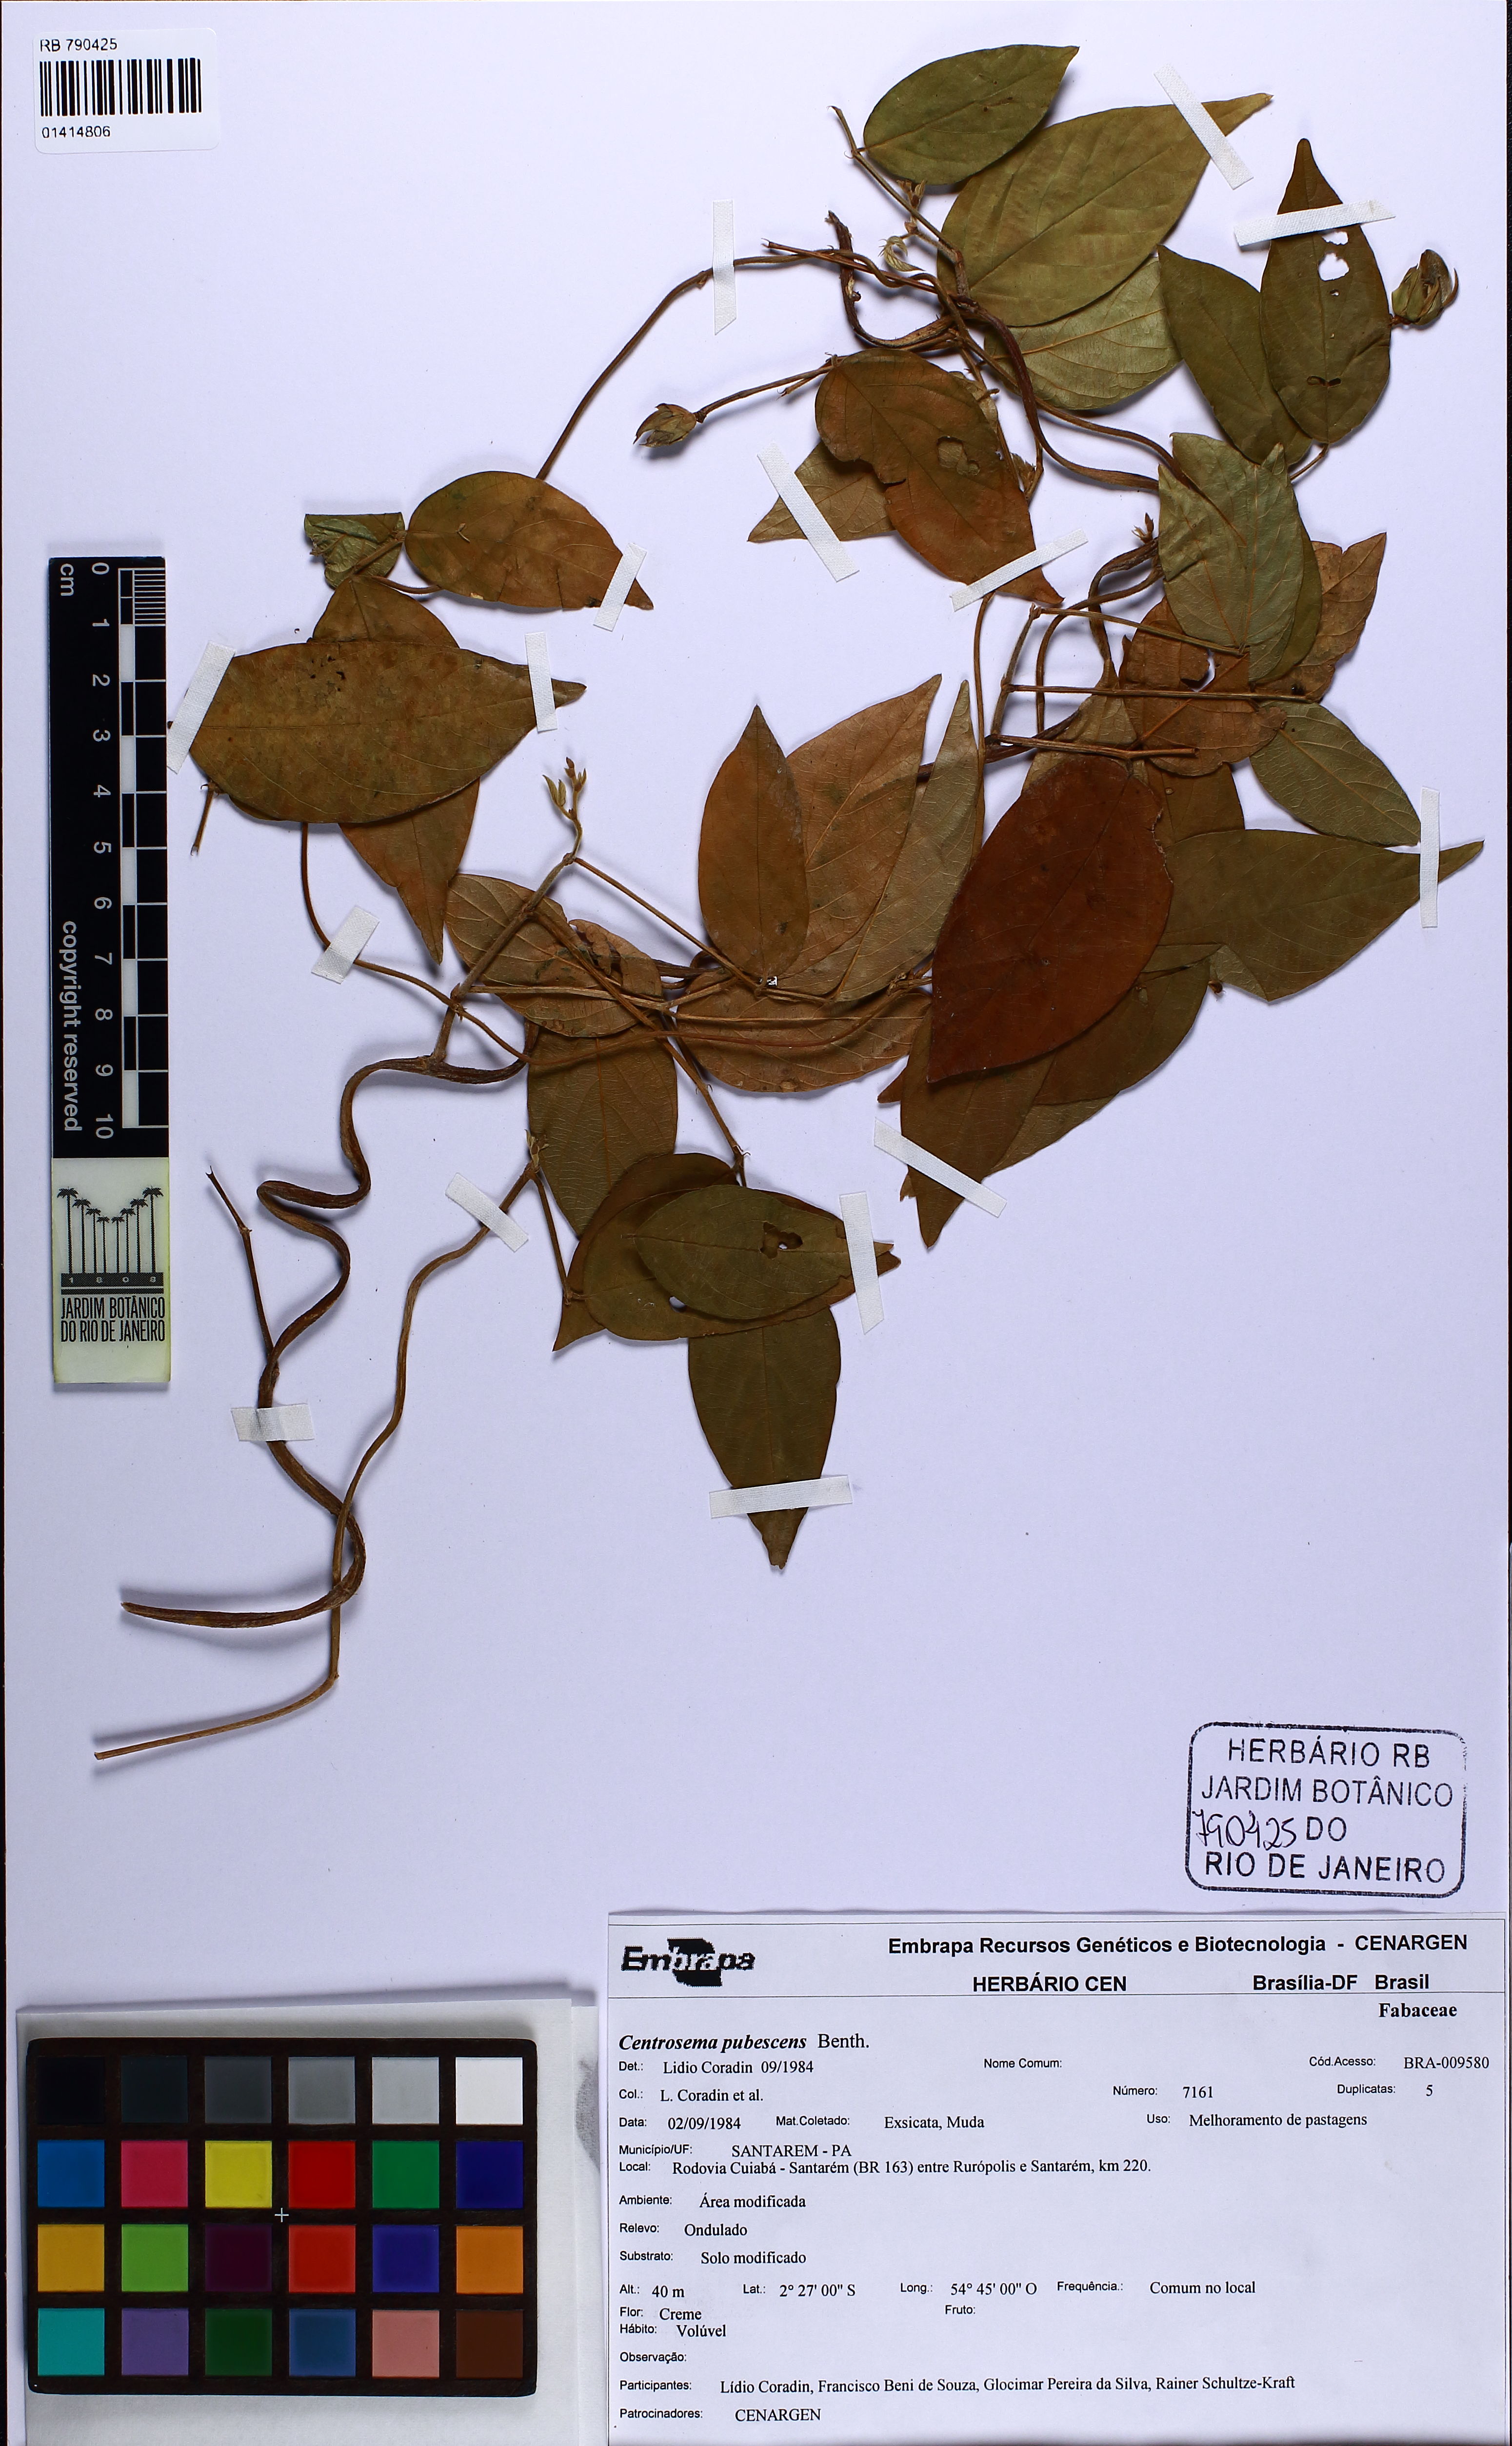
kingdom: Plantae
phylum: Tracheophyta
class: Magnoliopsida
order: Fabales
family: Fabaceae
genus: Centrosema
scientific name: Centrosema pubescens
